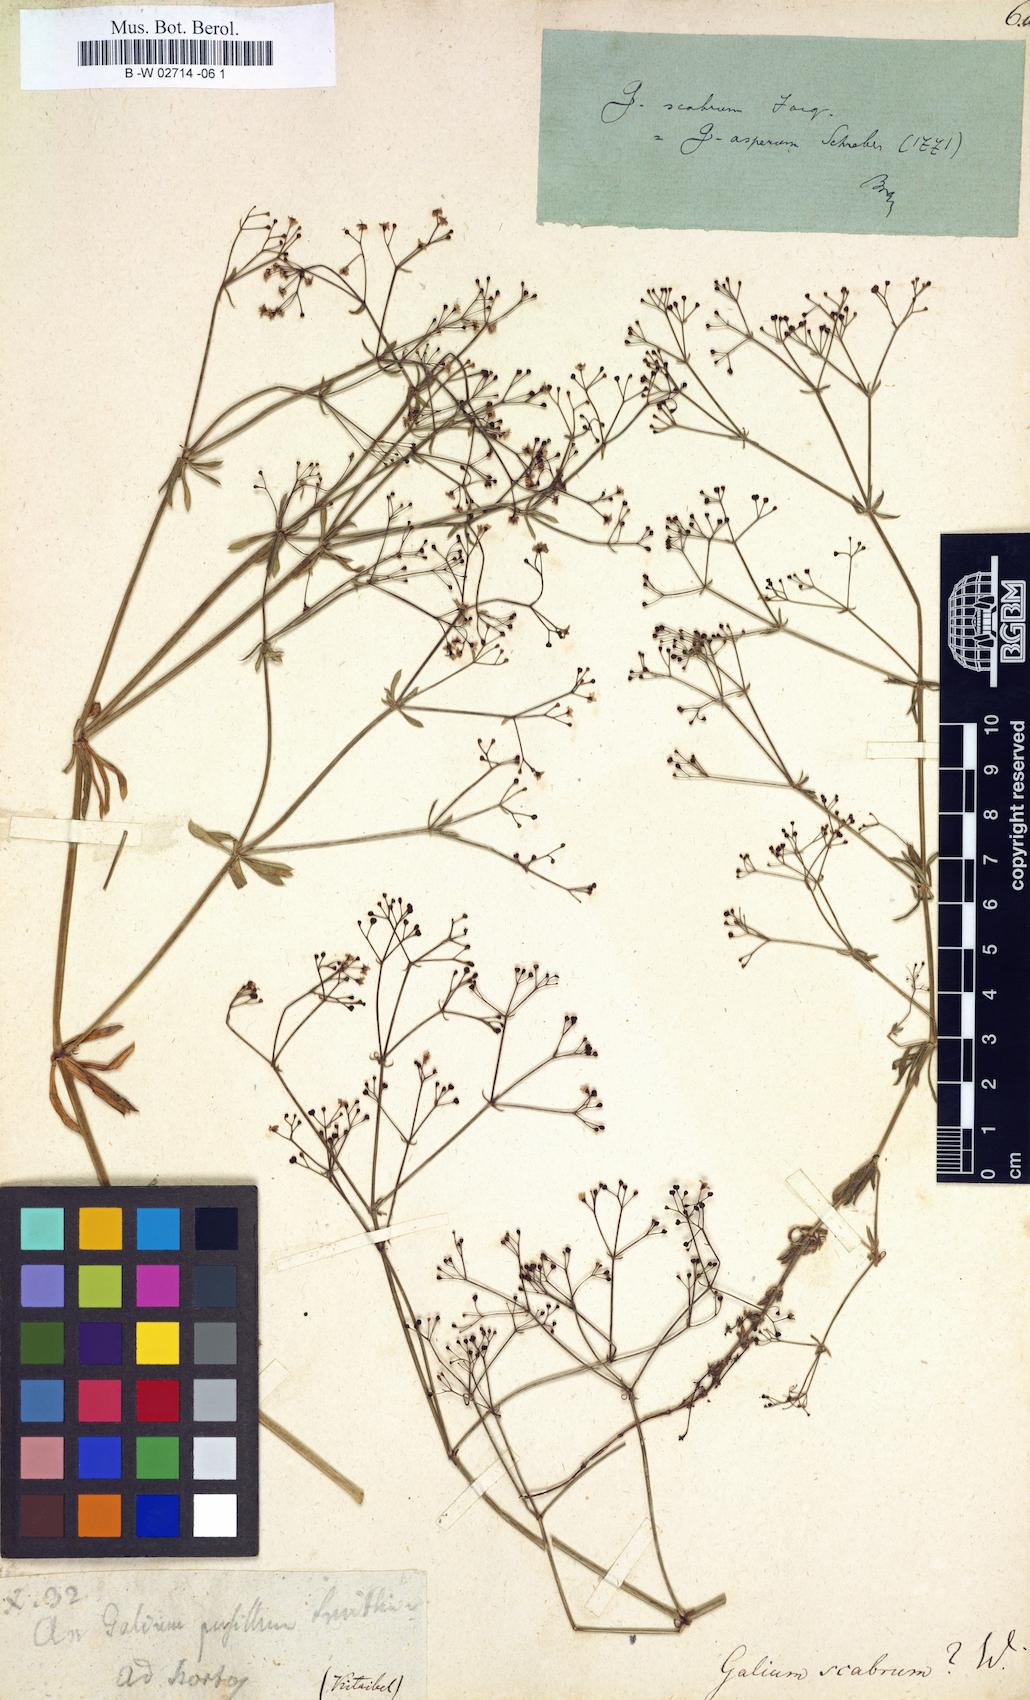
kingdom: Plantae
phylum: Tracheophyta
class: Magnoliopsida
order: Gentianales
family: Rubiaceae
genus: Galium
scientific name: Galium scabrum
